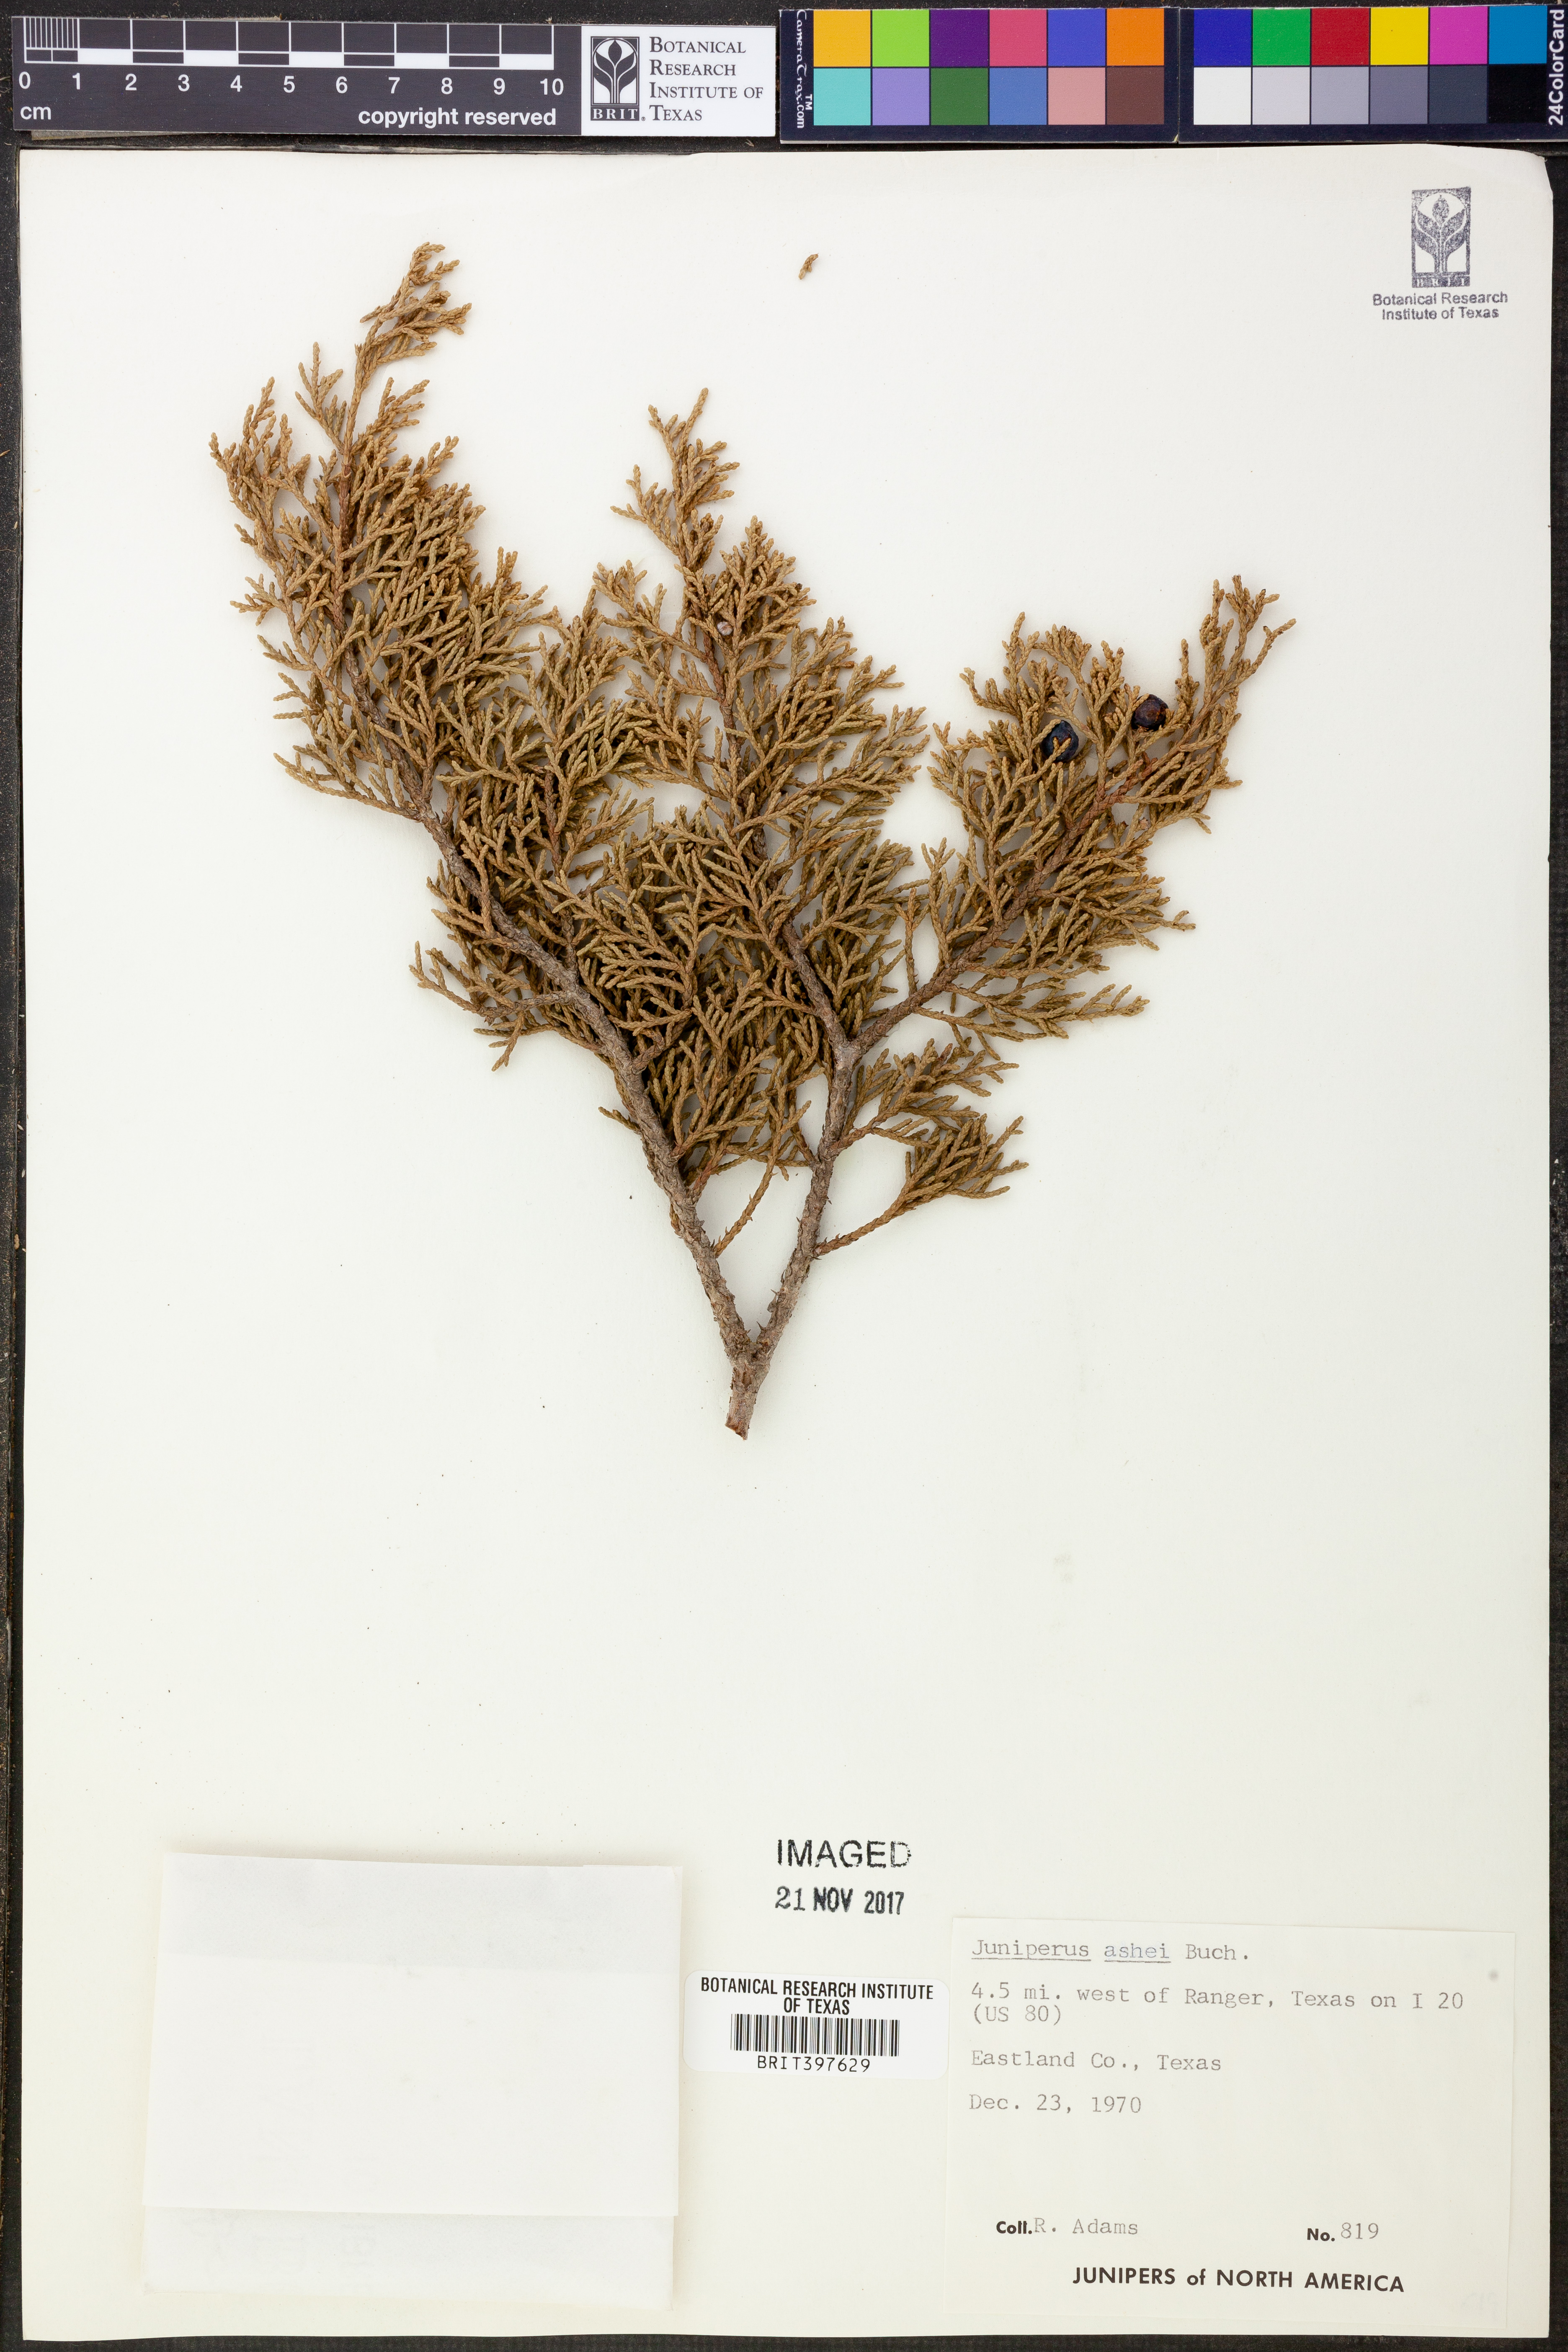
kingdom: Plantae
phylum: Tracheophyta
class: Pinopsida
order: Pinales
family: Cupressaceae
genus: Juniperus
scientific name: Juniperus ashei
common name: Mexican juniper
